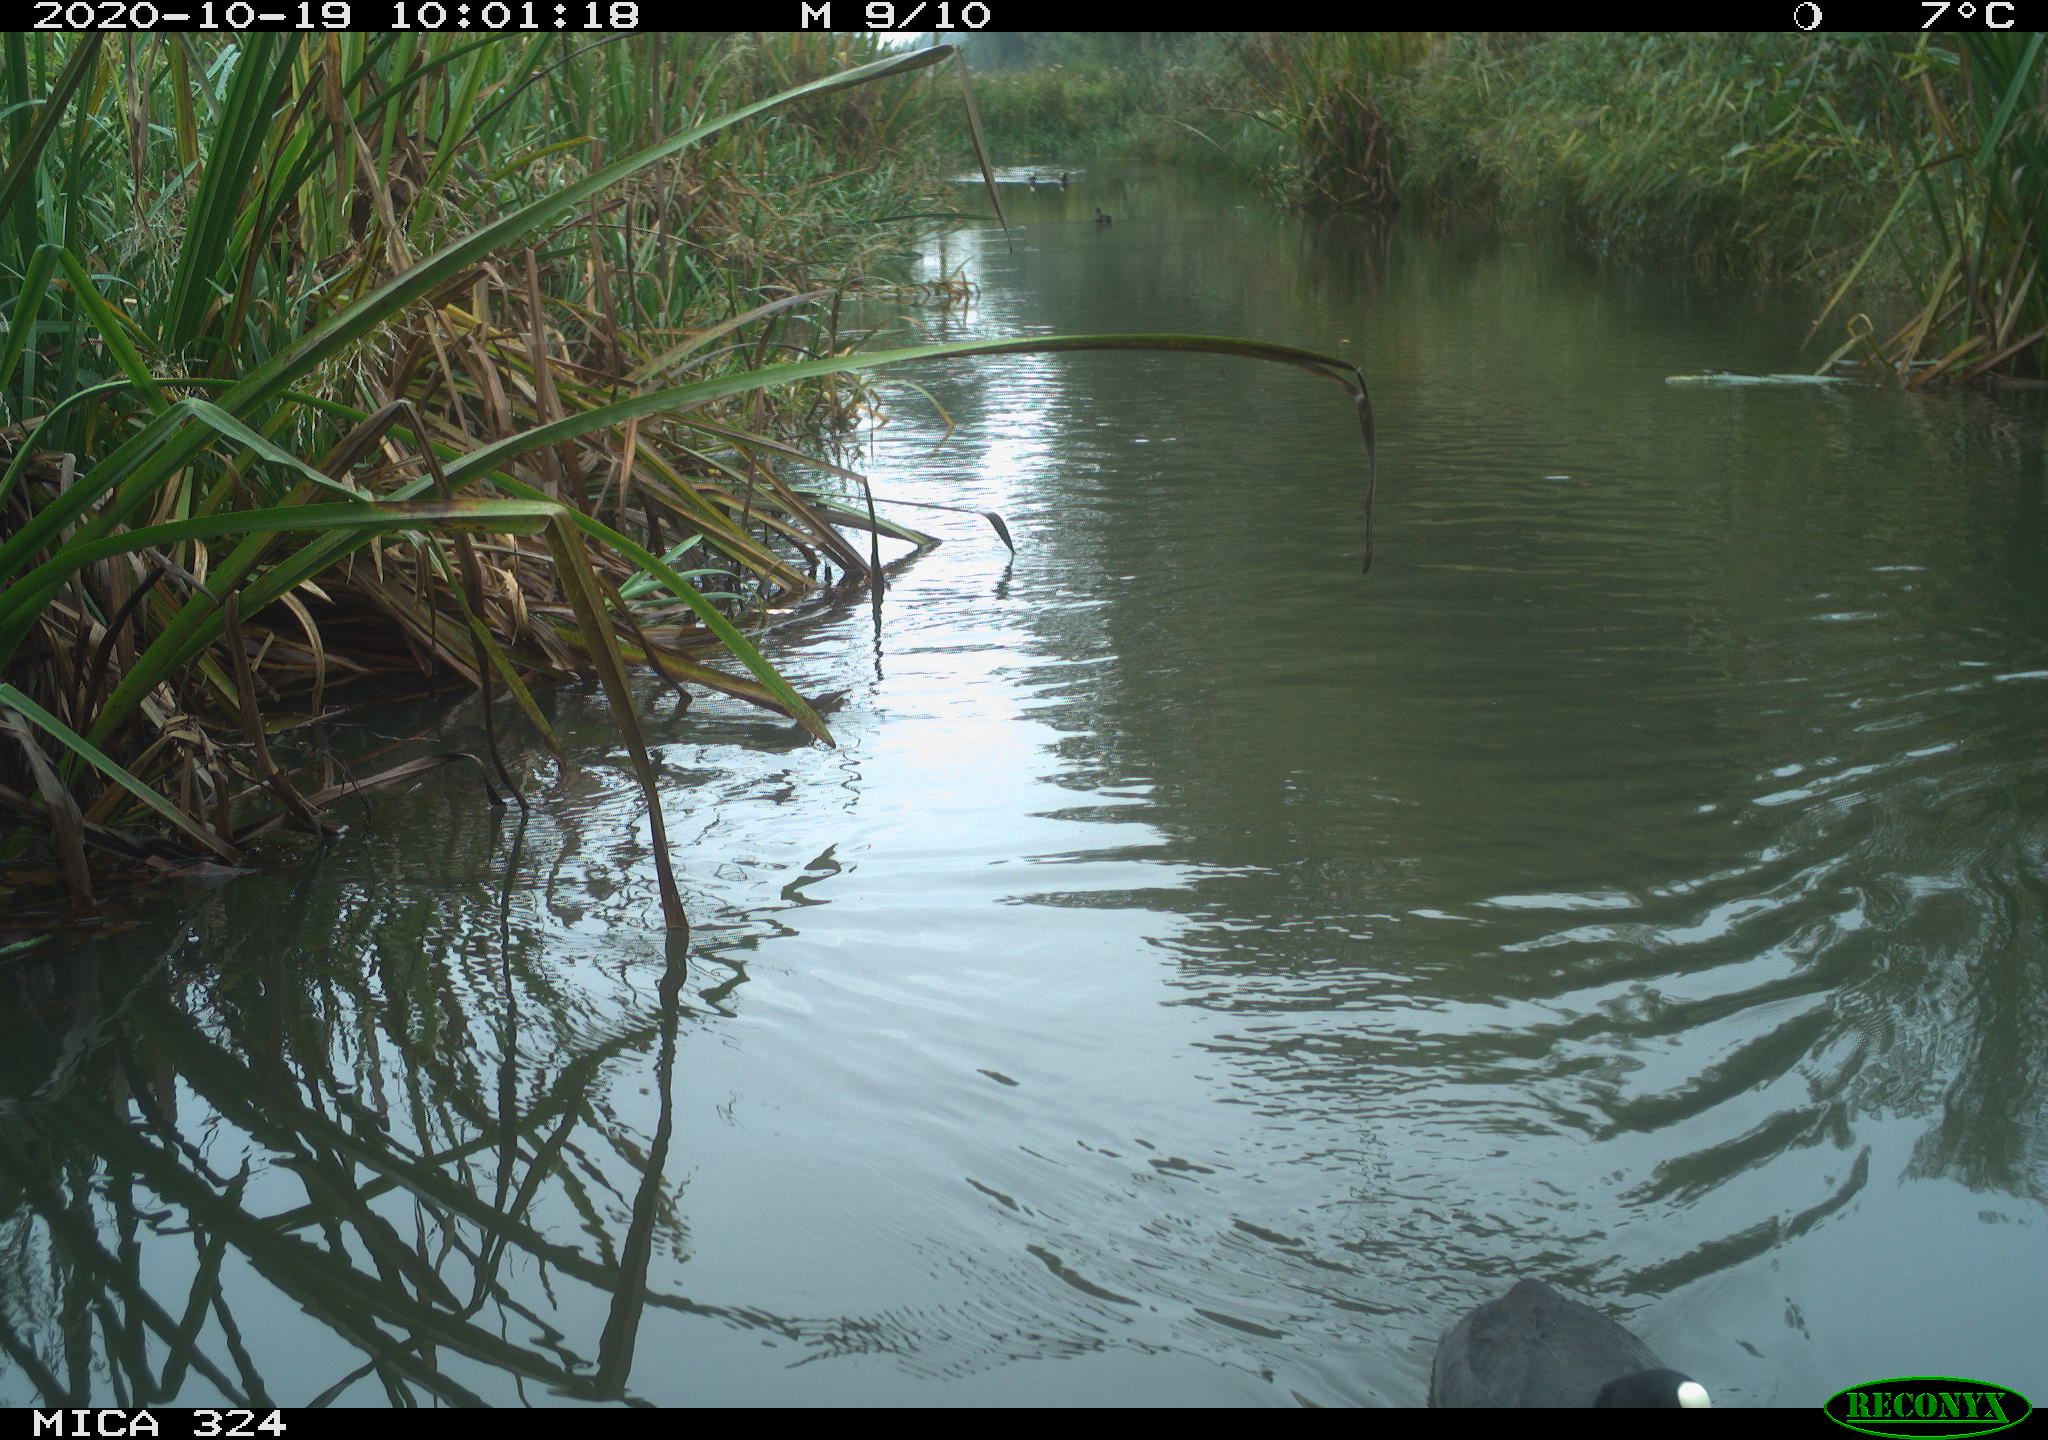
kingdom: Animalia
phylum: Chordata
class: Aves
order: Gruiformes
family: Rallidae
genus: Fulica
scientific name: Fulica atra
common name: Eurasian coot
